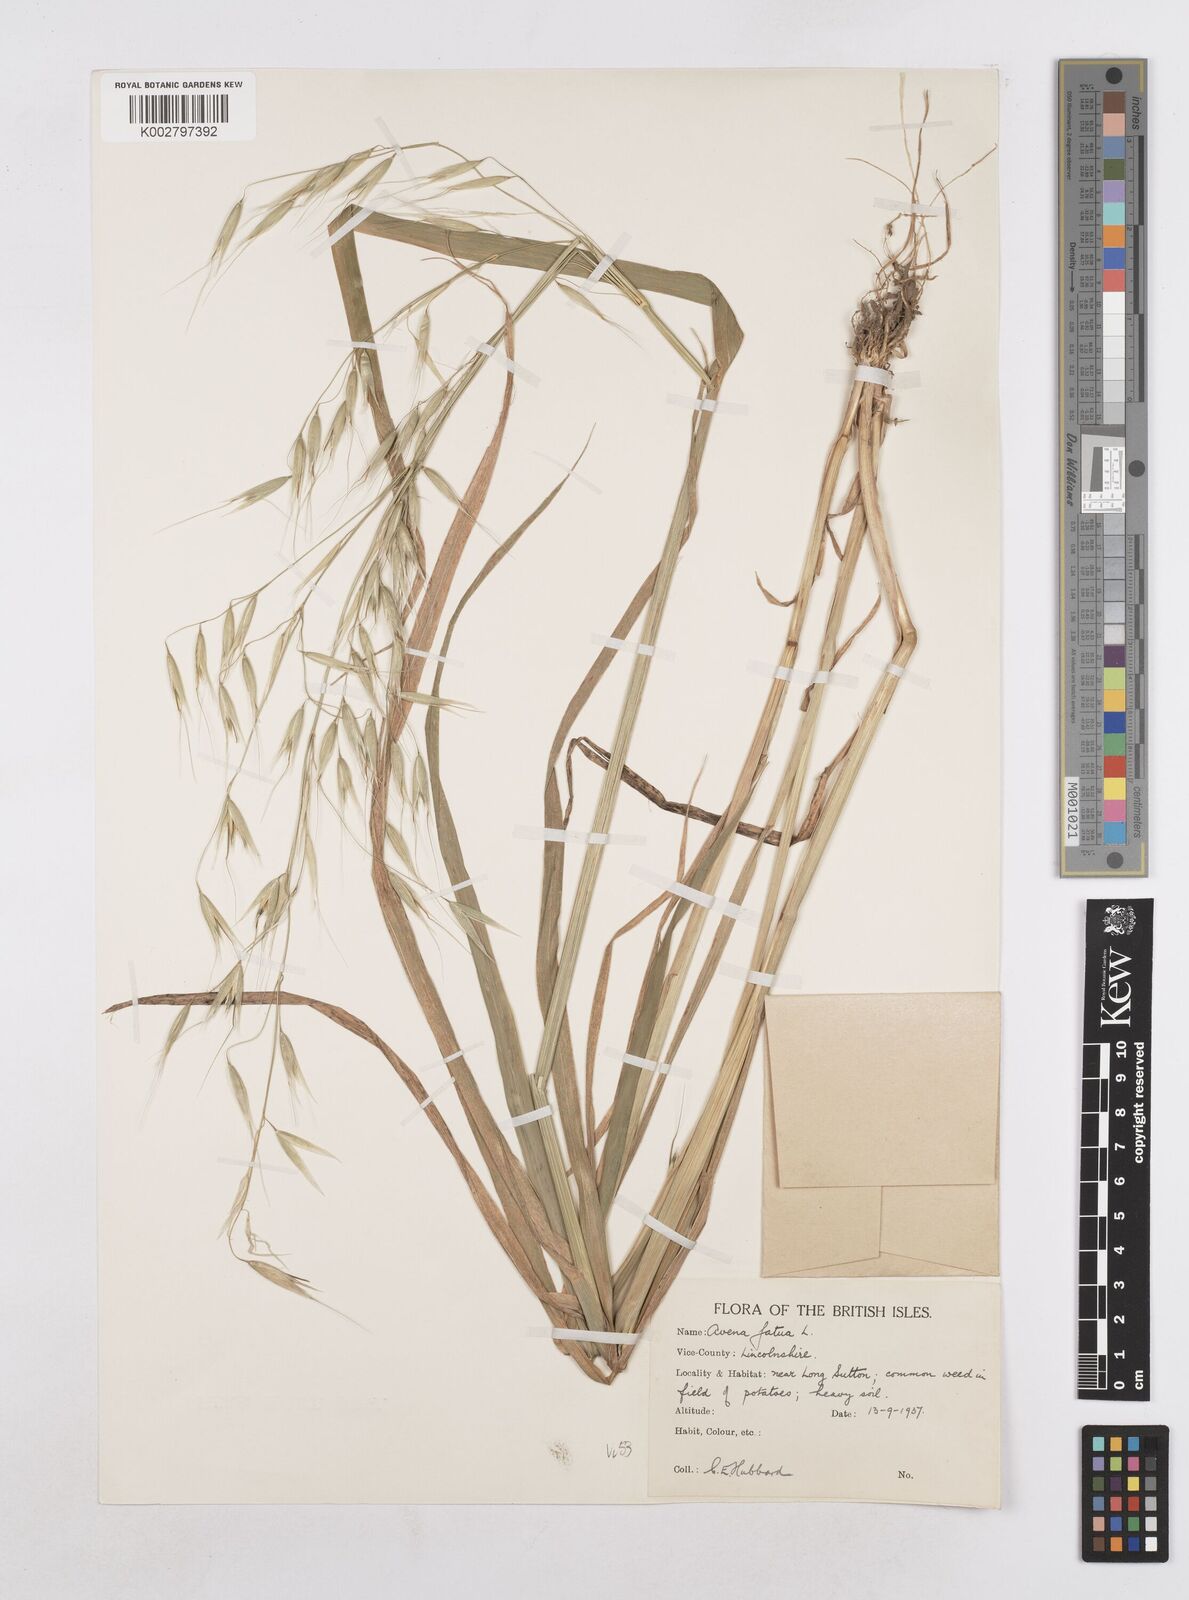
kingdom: Plantae
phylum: Tracheophyta
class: Liliopsida
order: Poales
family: Poaceae
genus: Avena
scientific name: Avena fatua
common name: Wild oat
